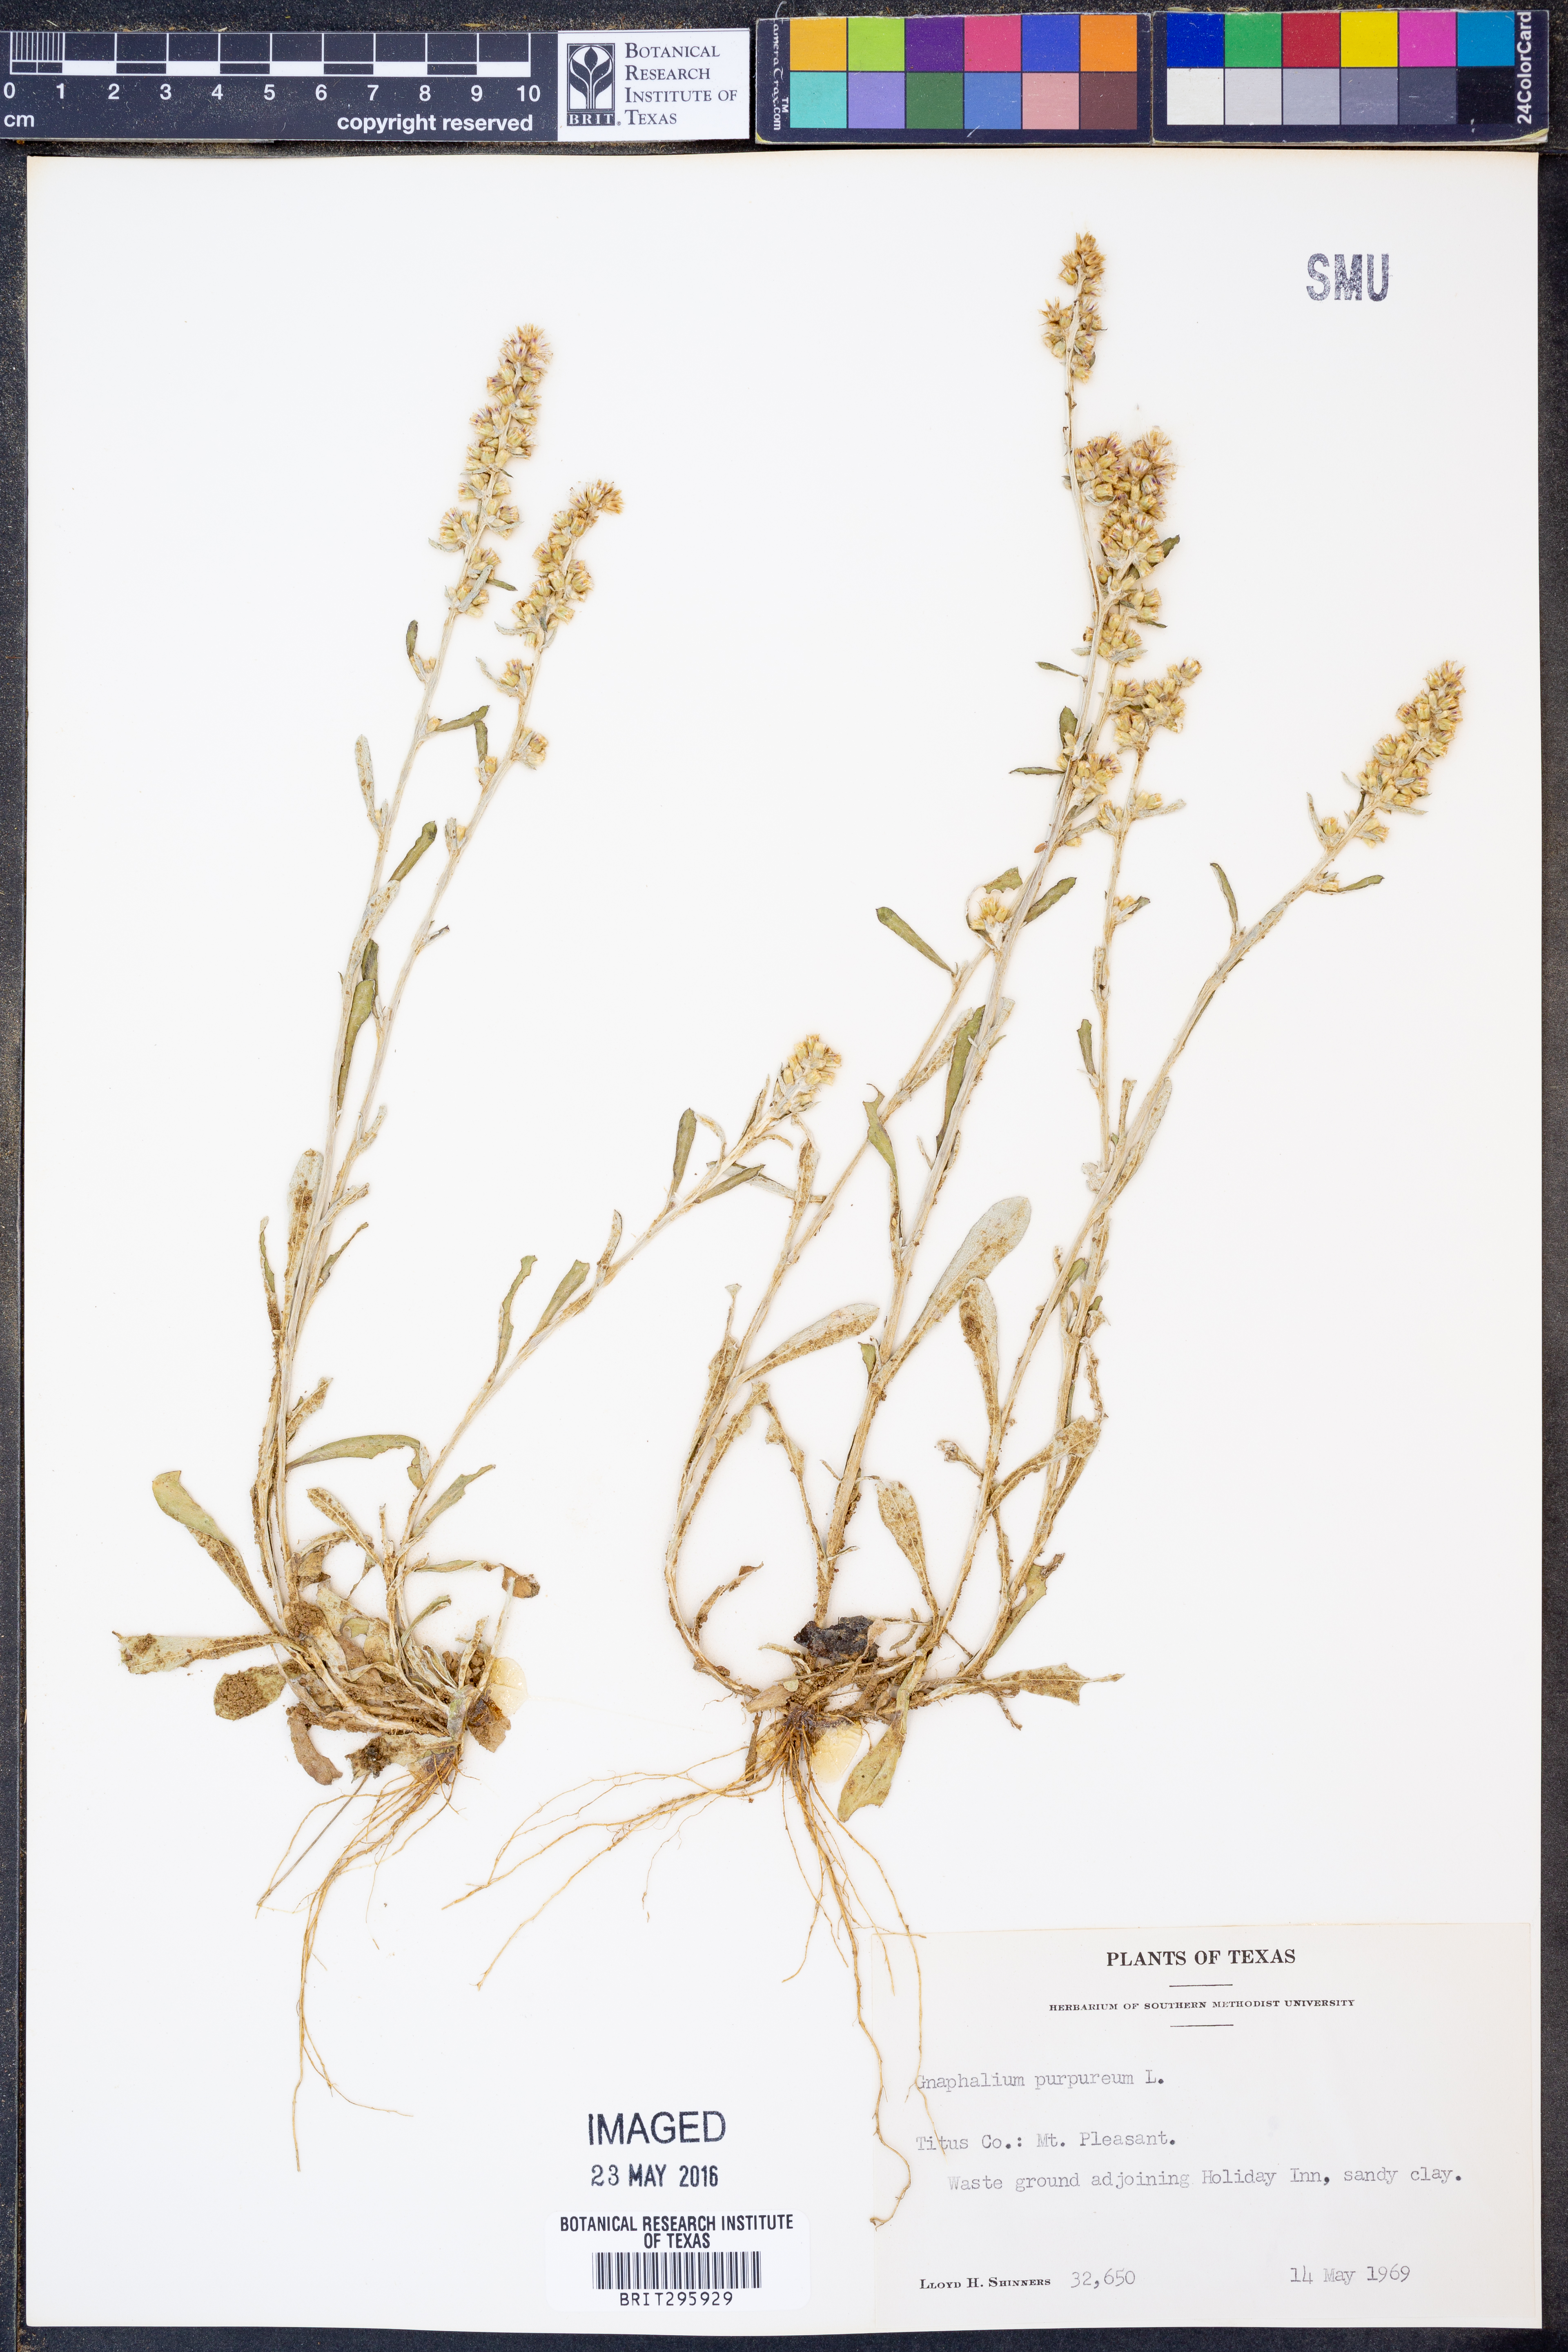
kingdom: Plantae
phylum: Tracheophyta
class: Magnoliopsida
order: Asterales
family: Asteraceae
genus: Gamochaeta
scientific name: Gamochaeta purpurea
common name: Purple cudweed
